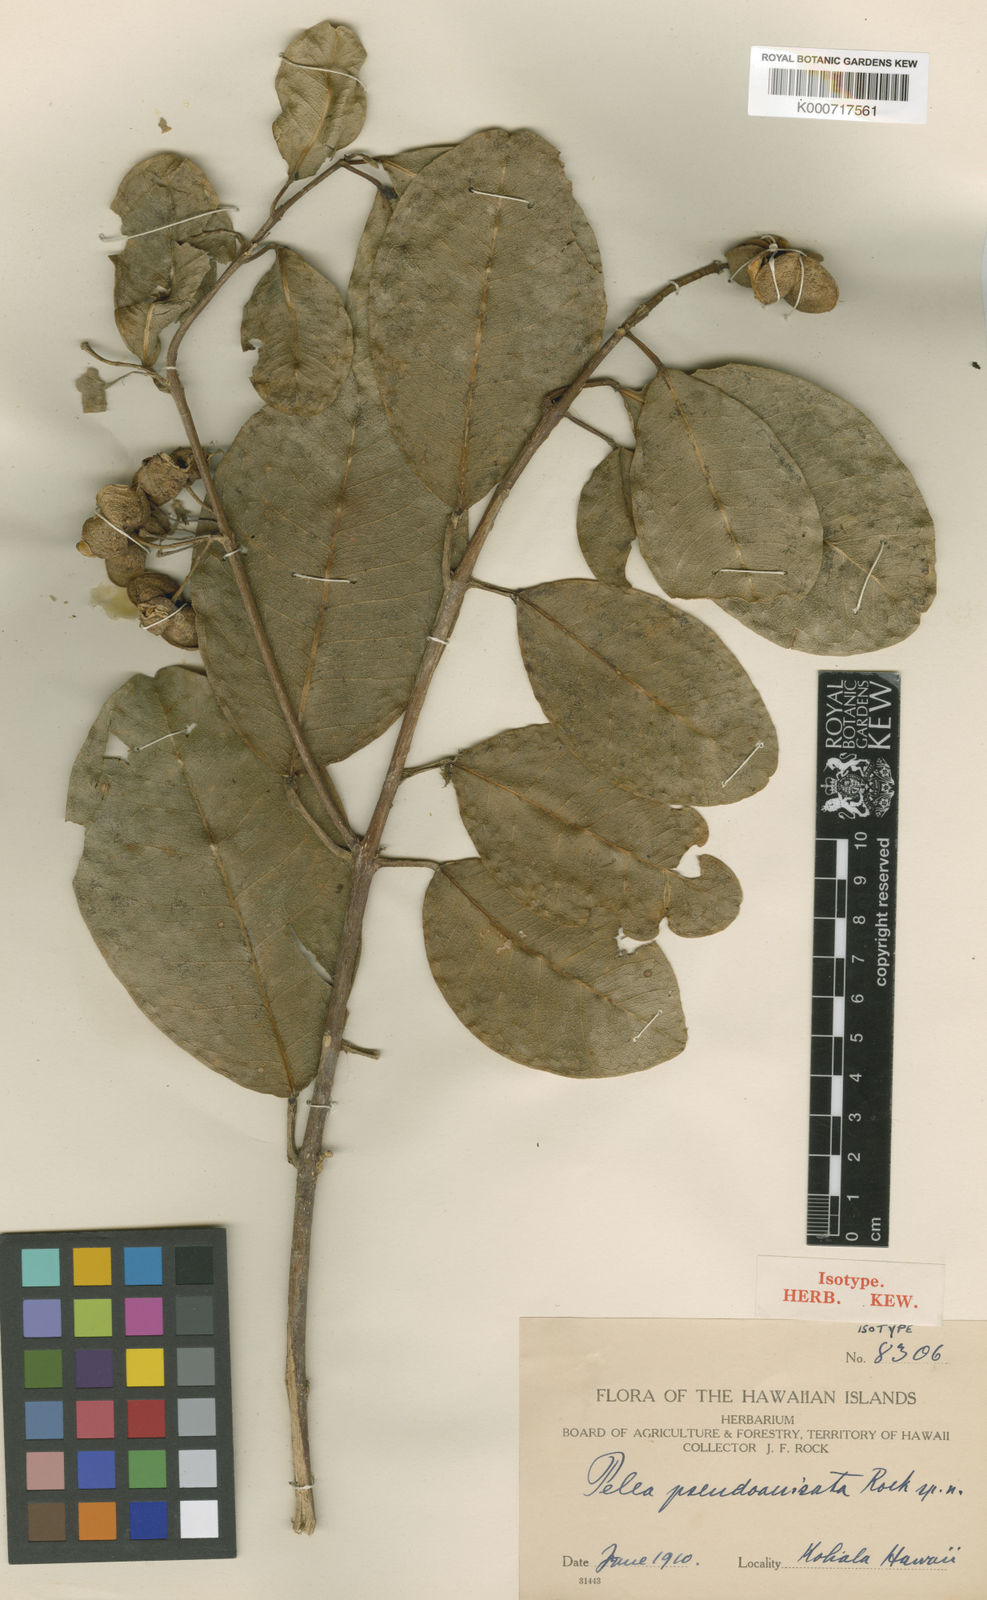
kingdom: Plantae
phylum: Tracheophyta
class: Magnoliopsida
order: Sapindales
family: Rutaceae
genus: Melicope
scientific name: Melicope pseudoanisata
